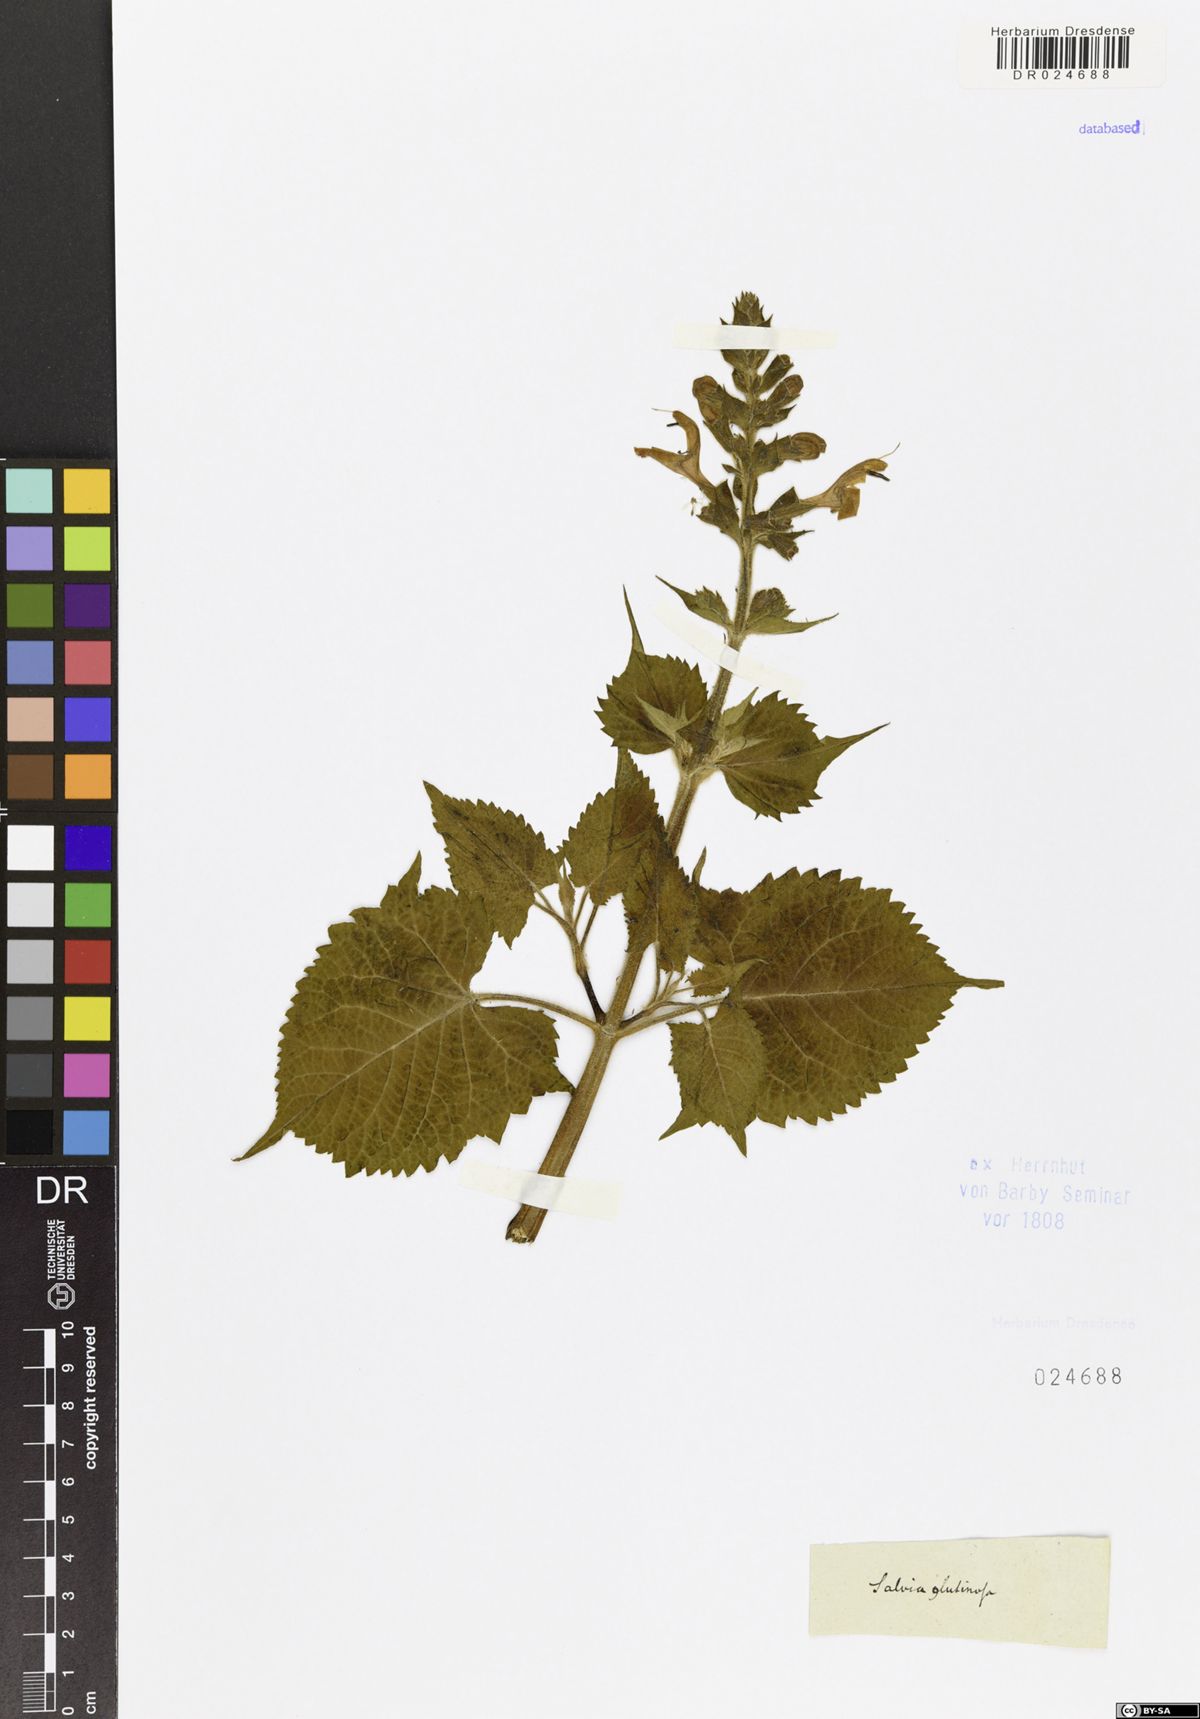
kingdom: Plantae
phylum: Tracheophyta
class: Magnoliopsida
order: Lamiales
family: Lamiaceae
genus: Salvia
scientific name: Salvia glutinosa
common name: Sticky clary
